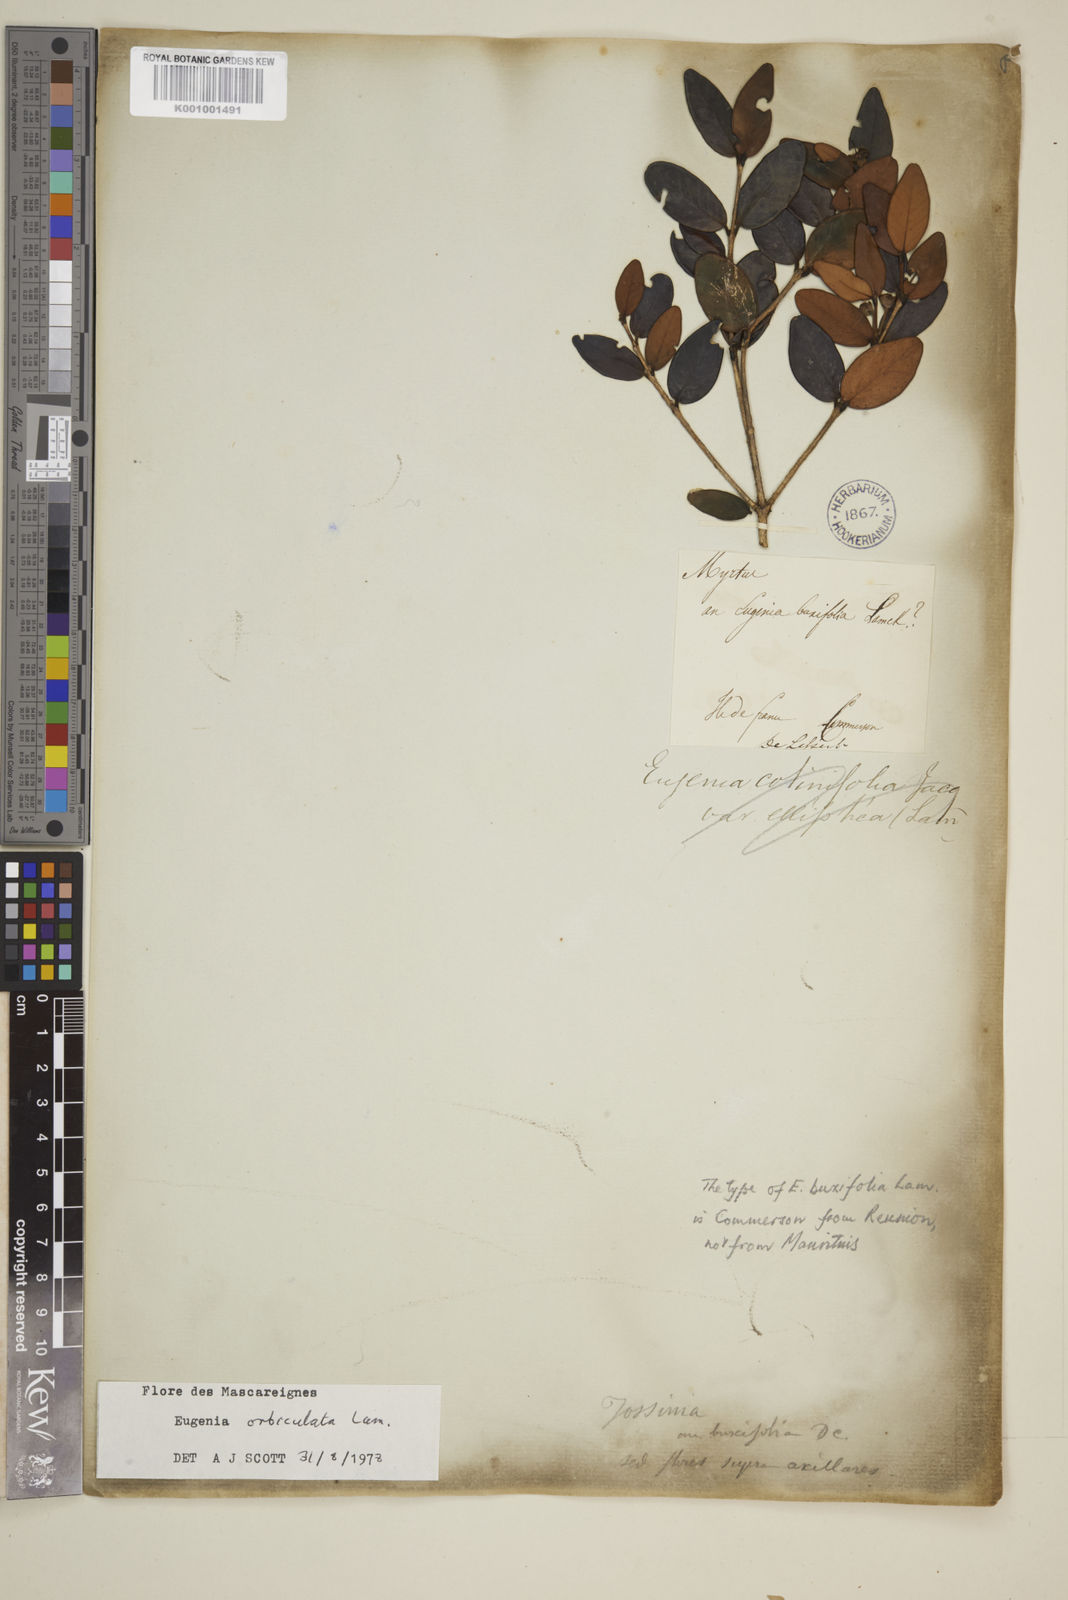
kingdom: Plantae
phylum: Tracheophyta
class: Magnoliopsida
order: Myrtales
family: Myrtaceae
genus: Eugenia
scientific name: Eugenia orbiculata
